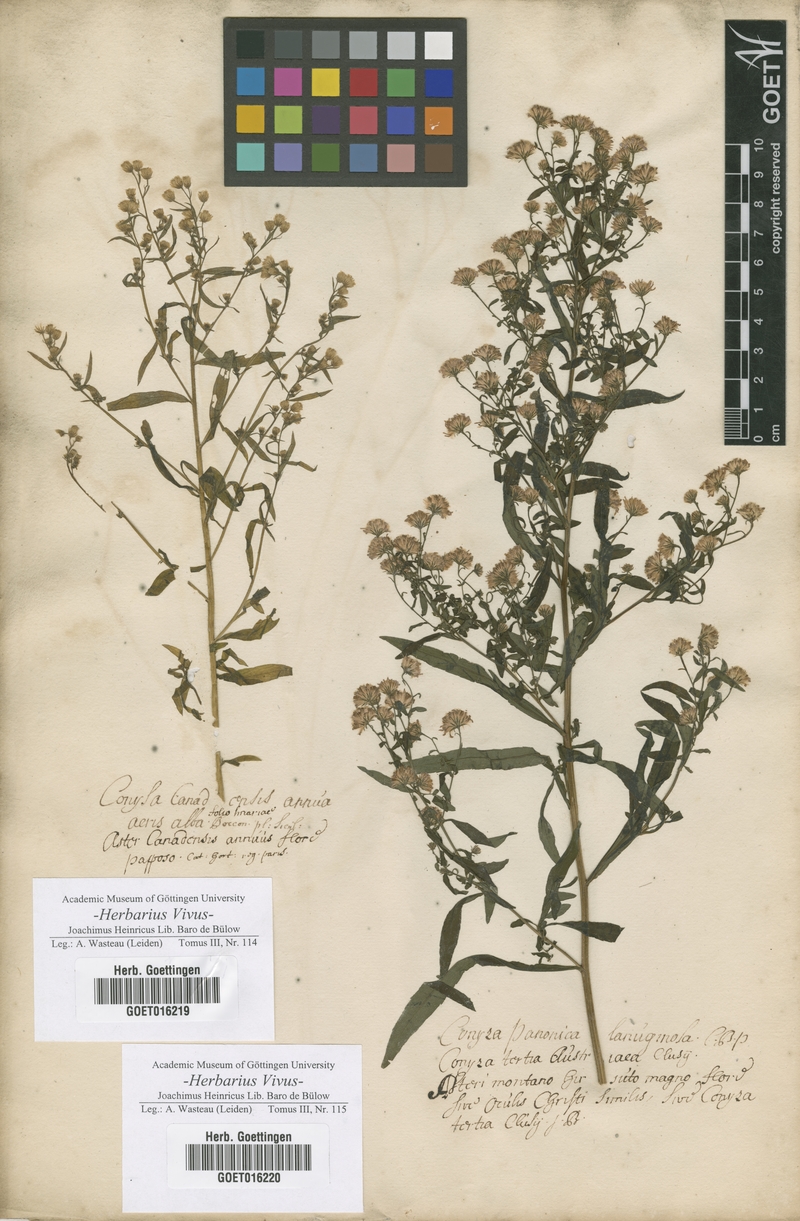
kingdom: Plantae
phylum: Tracheophyta
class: Magnoliopsida
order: Asterales
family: Asteraceae
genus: Erigeron
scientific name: Erigeron canadensis
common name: Canadian fleabane
